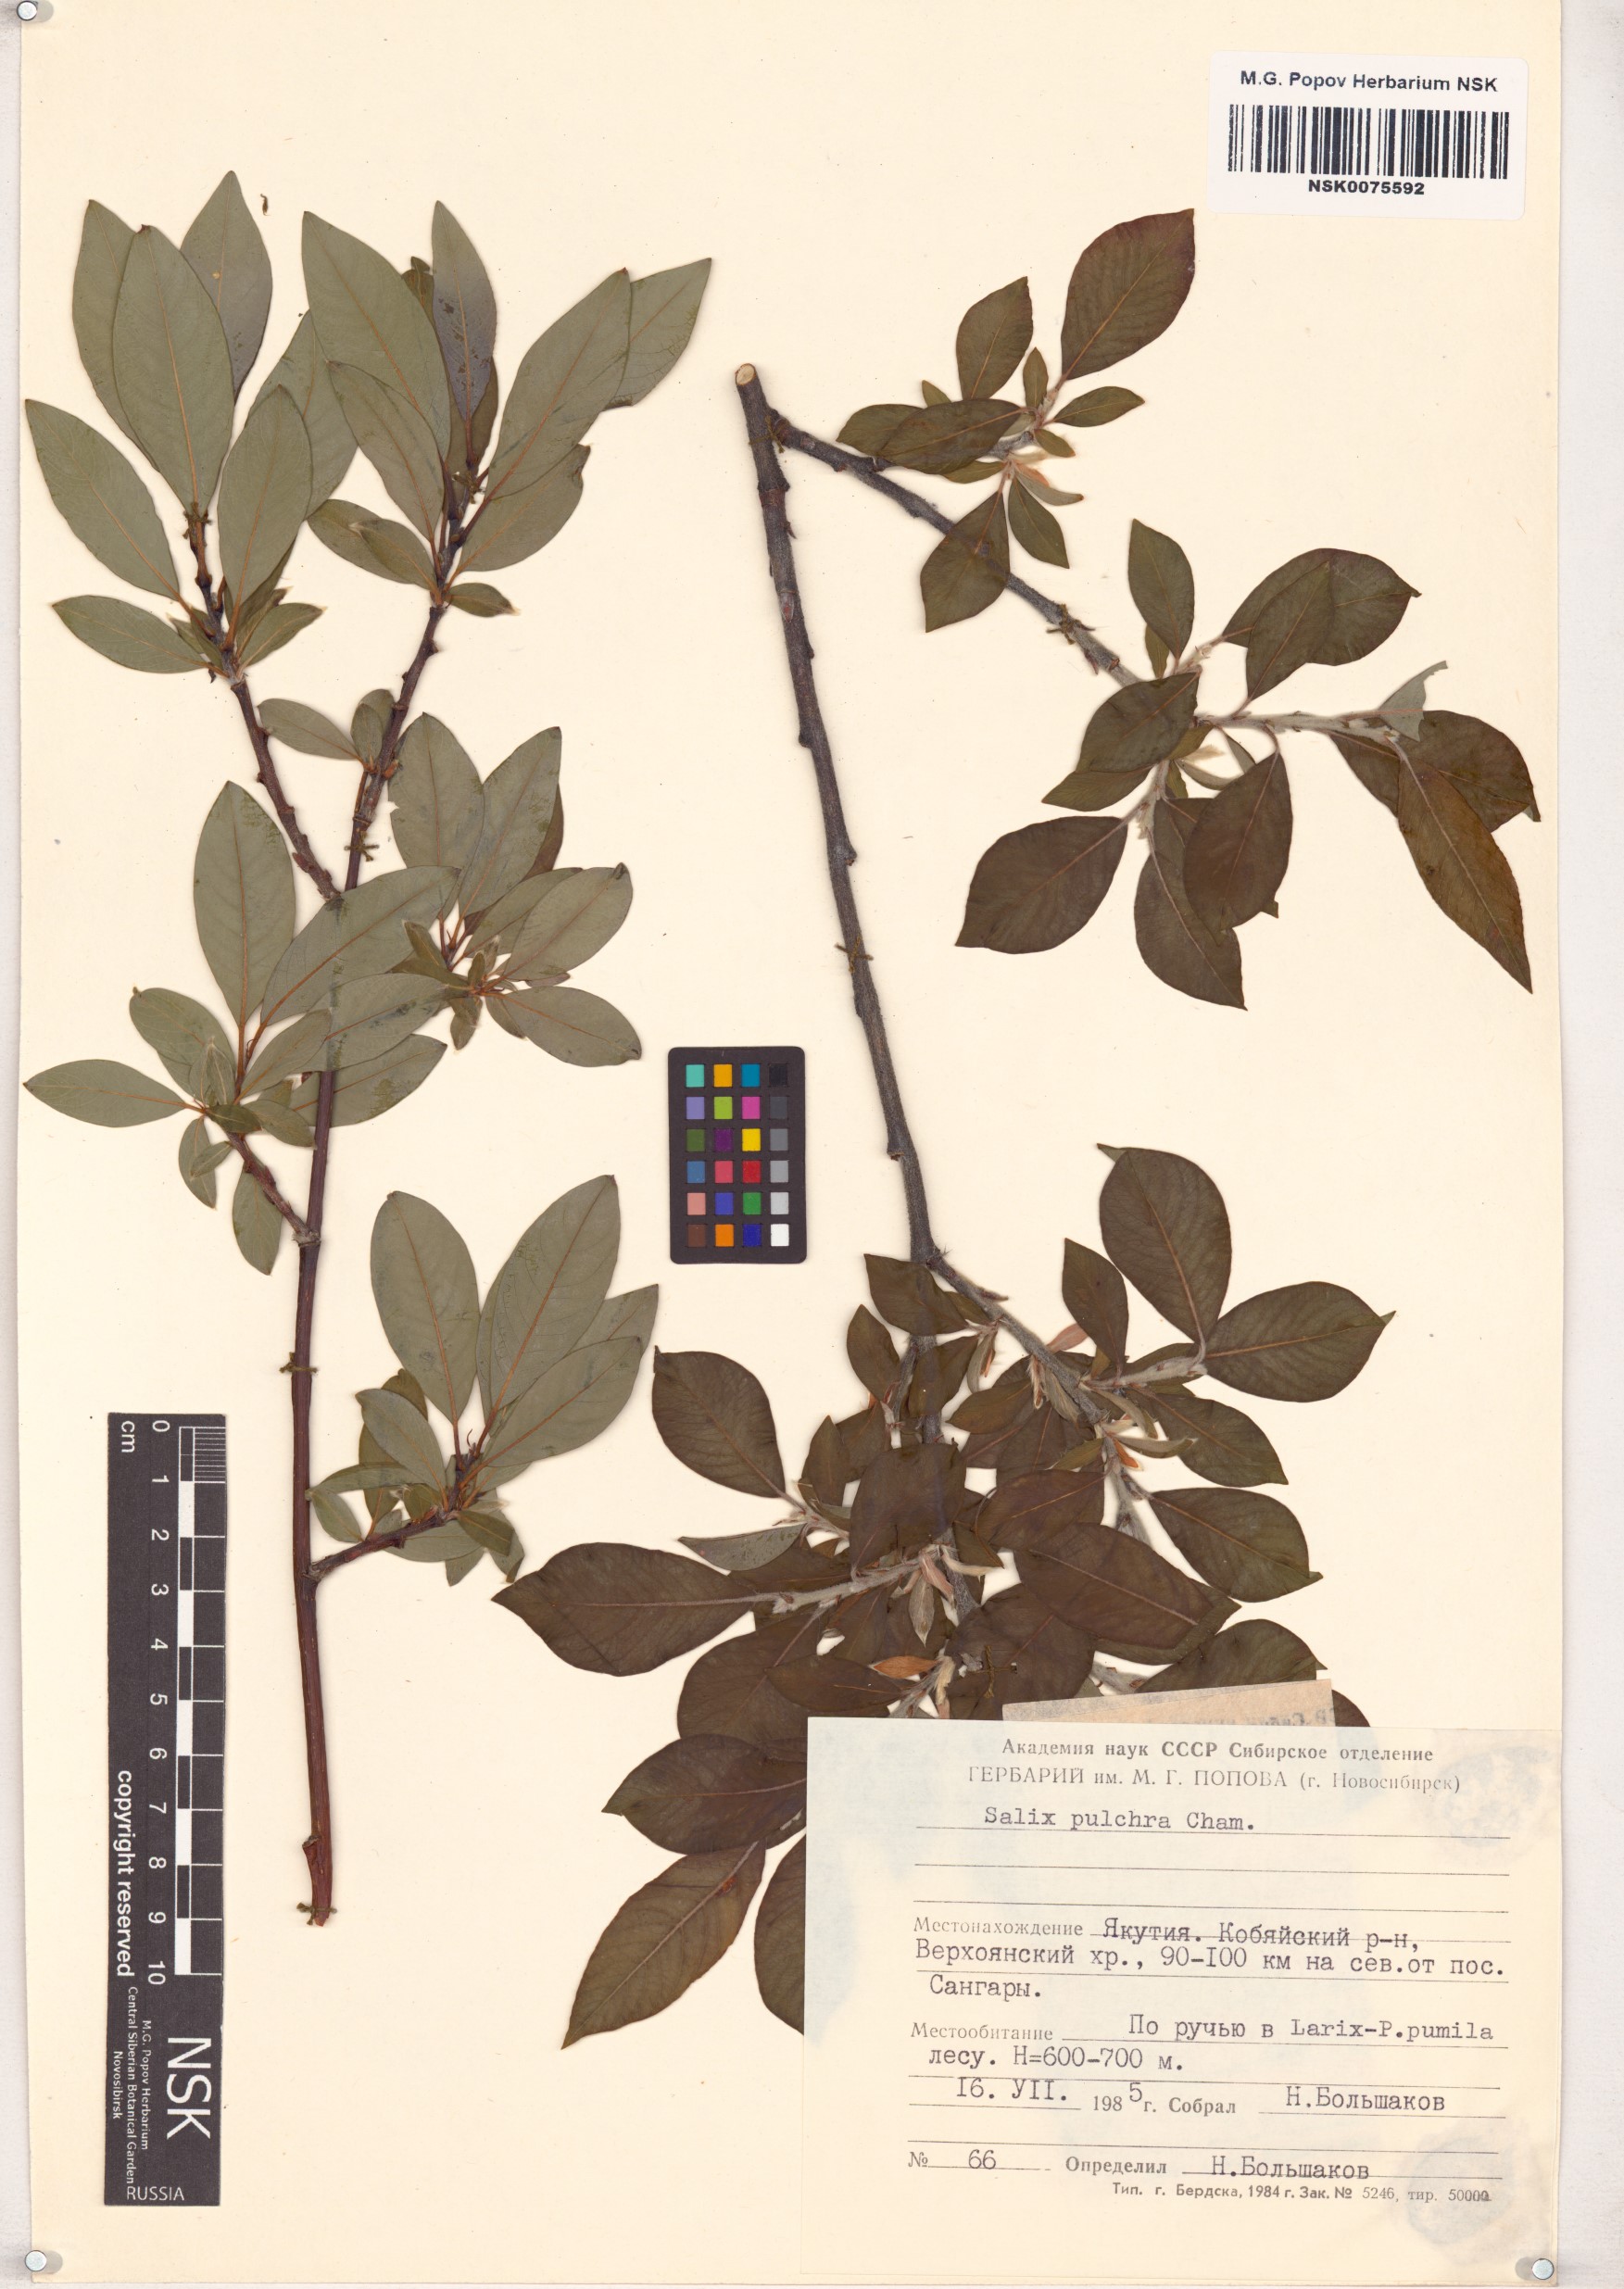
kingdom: Plantae
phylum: Tracheophyta
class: Magnoliopsida
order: Malpighiales
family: Salicaceae
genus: Salix
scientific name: Salix pulchra
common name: Diamond-leaved willow
